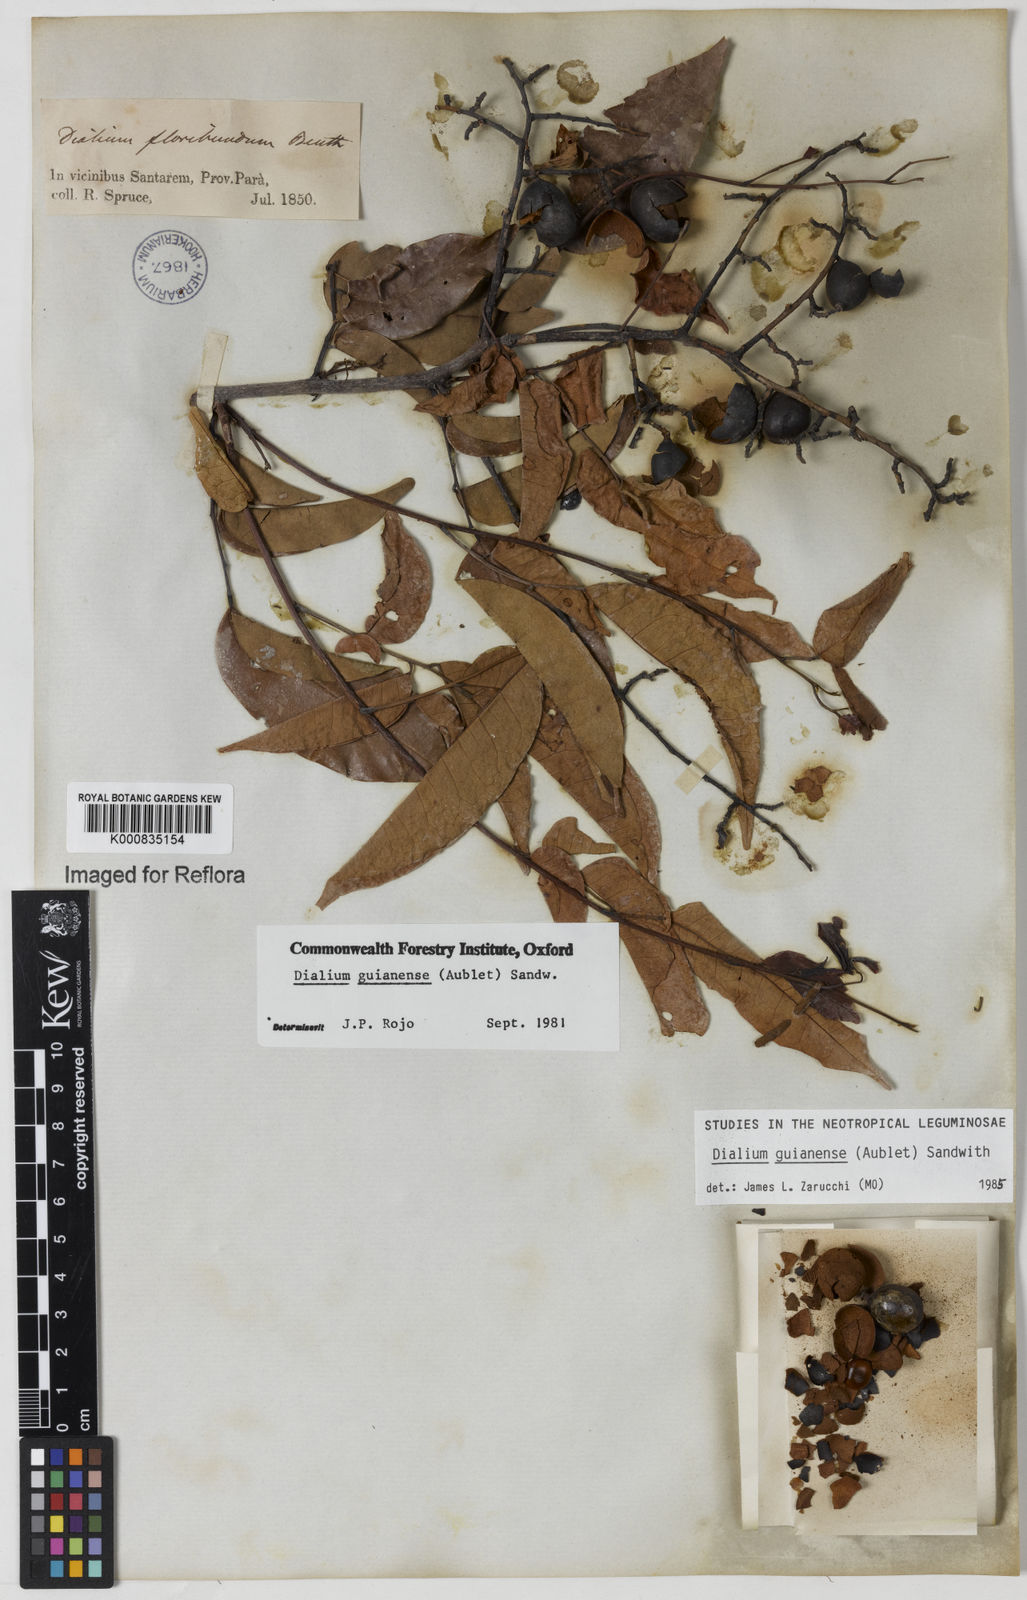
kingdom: Plantae
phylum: Tracheophyta
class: Magnoliopsida
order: Fabales
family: Fabaceae
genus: Dialium
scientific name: Dialium guianense
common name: Ironwood
